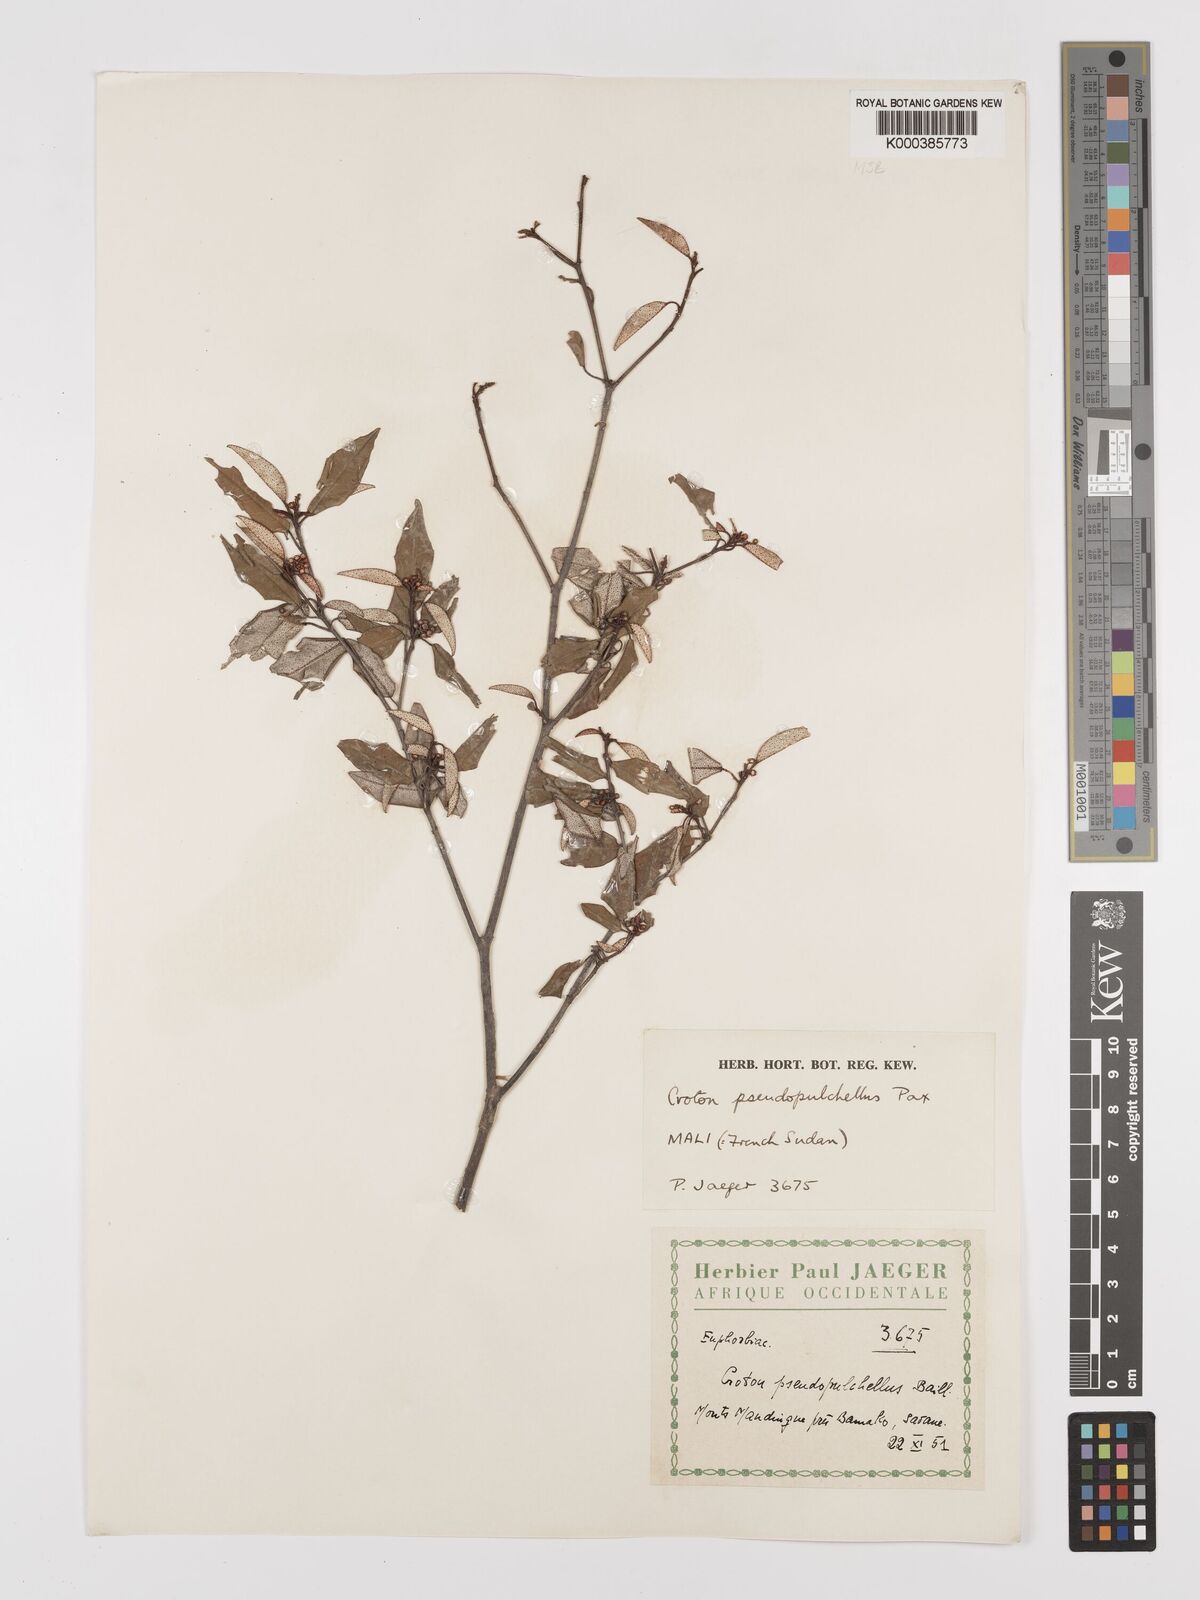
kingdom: Plantae
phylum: Tracheophyta
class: Magnoliopsida
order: Malpighiales
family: Euphorbiaceae
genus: Croton
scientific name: Croton pseudopulchellus
